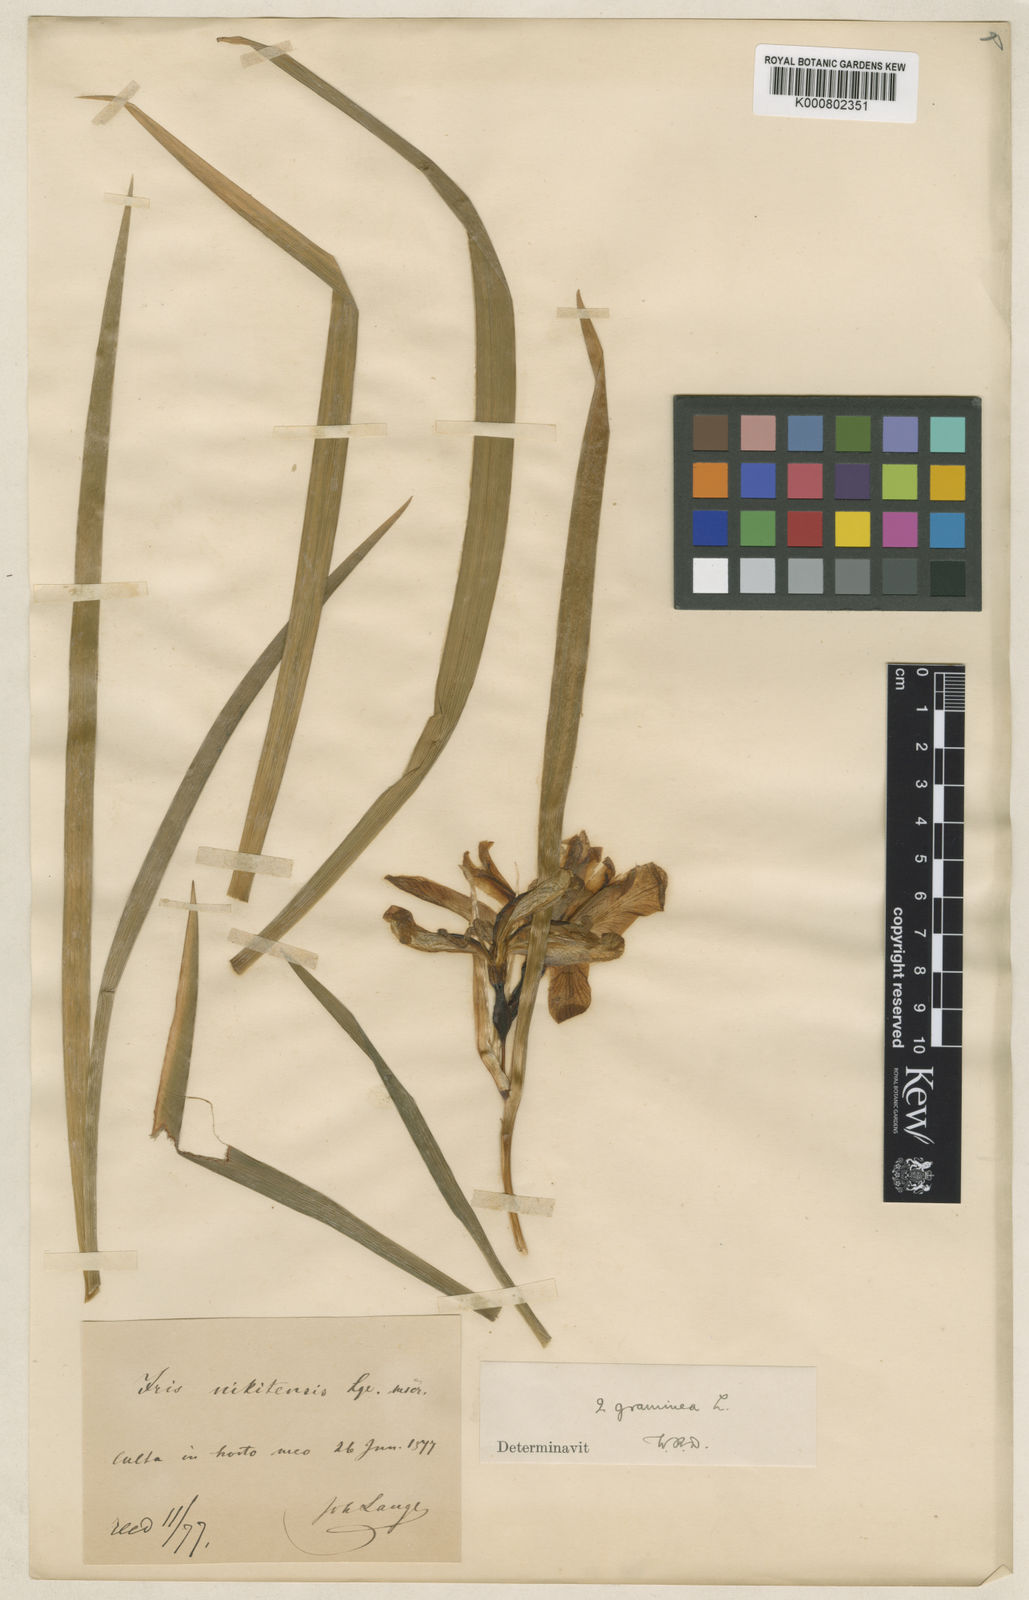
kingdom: Plantae
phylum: Tracheophyta
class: Liliopsida
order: Asparagales
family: Iridaceae
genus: Iris
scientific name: Iris graminea
